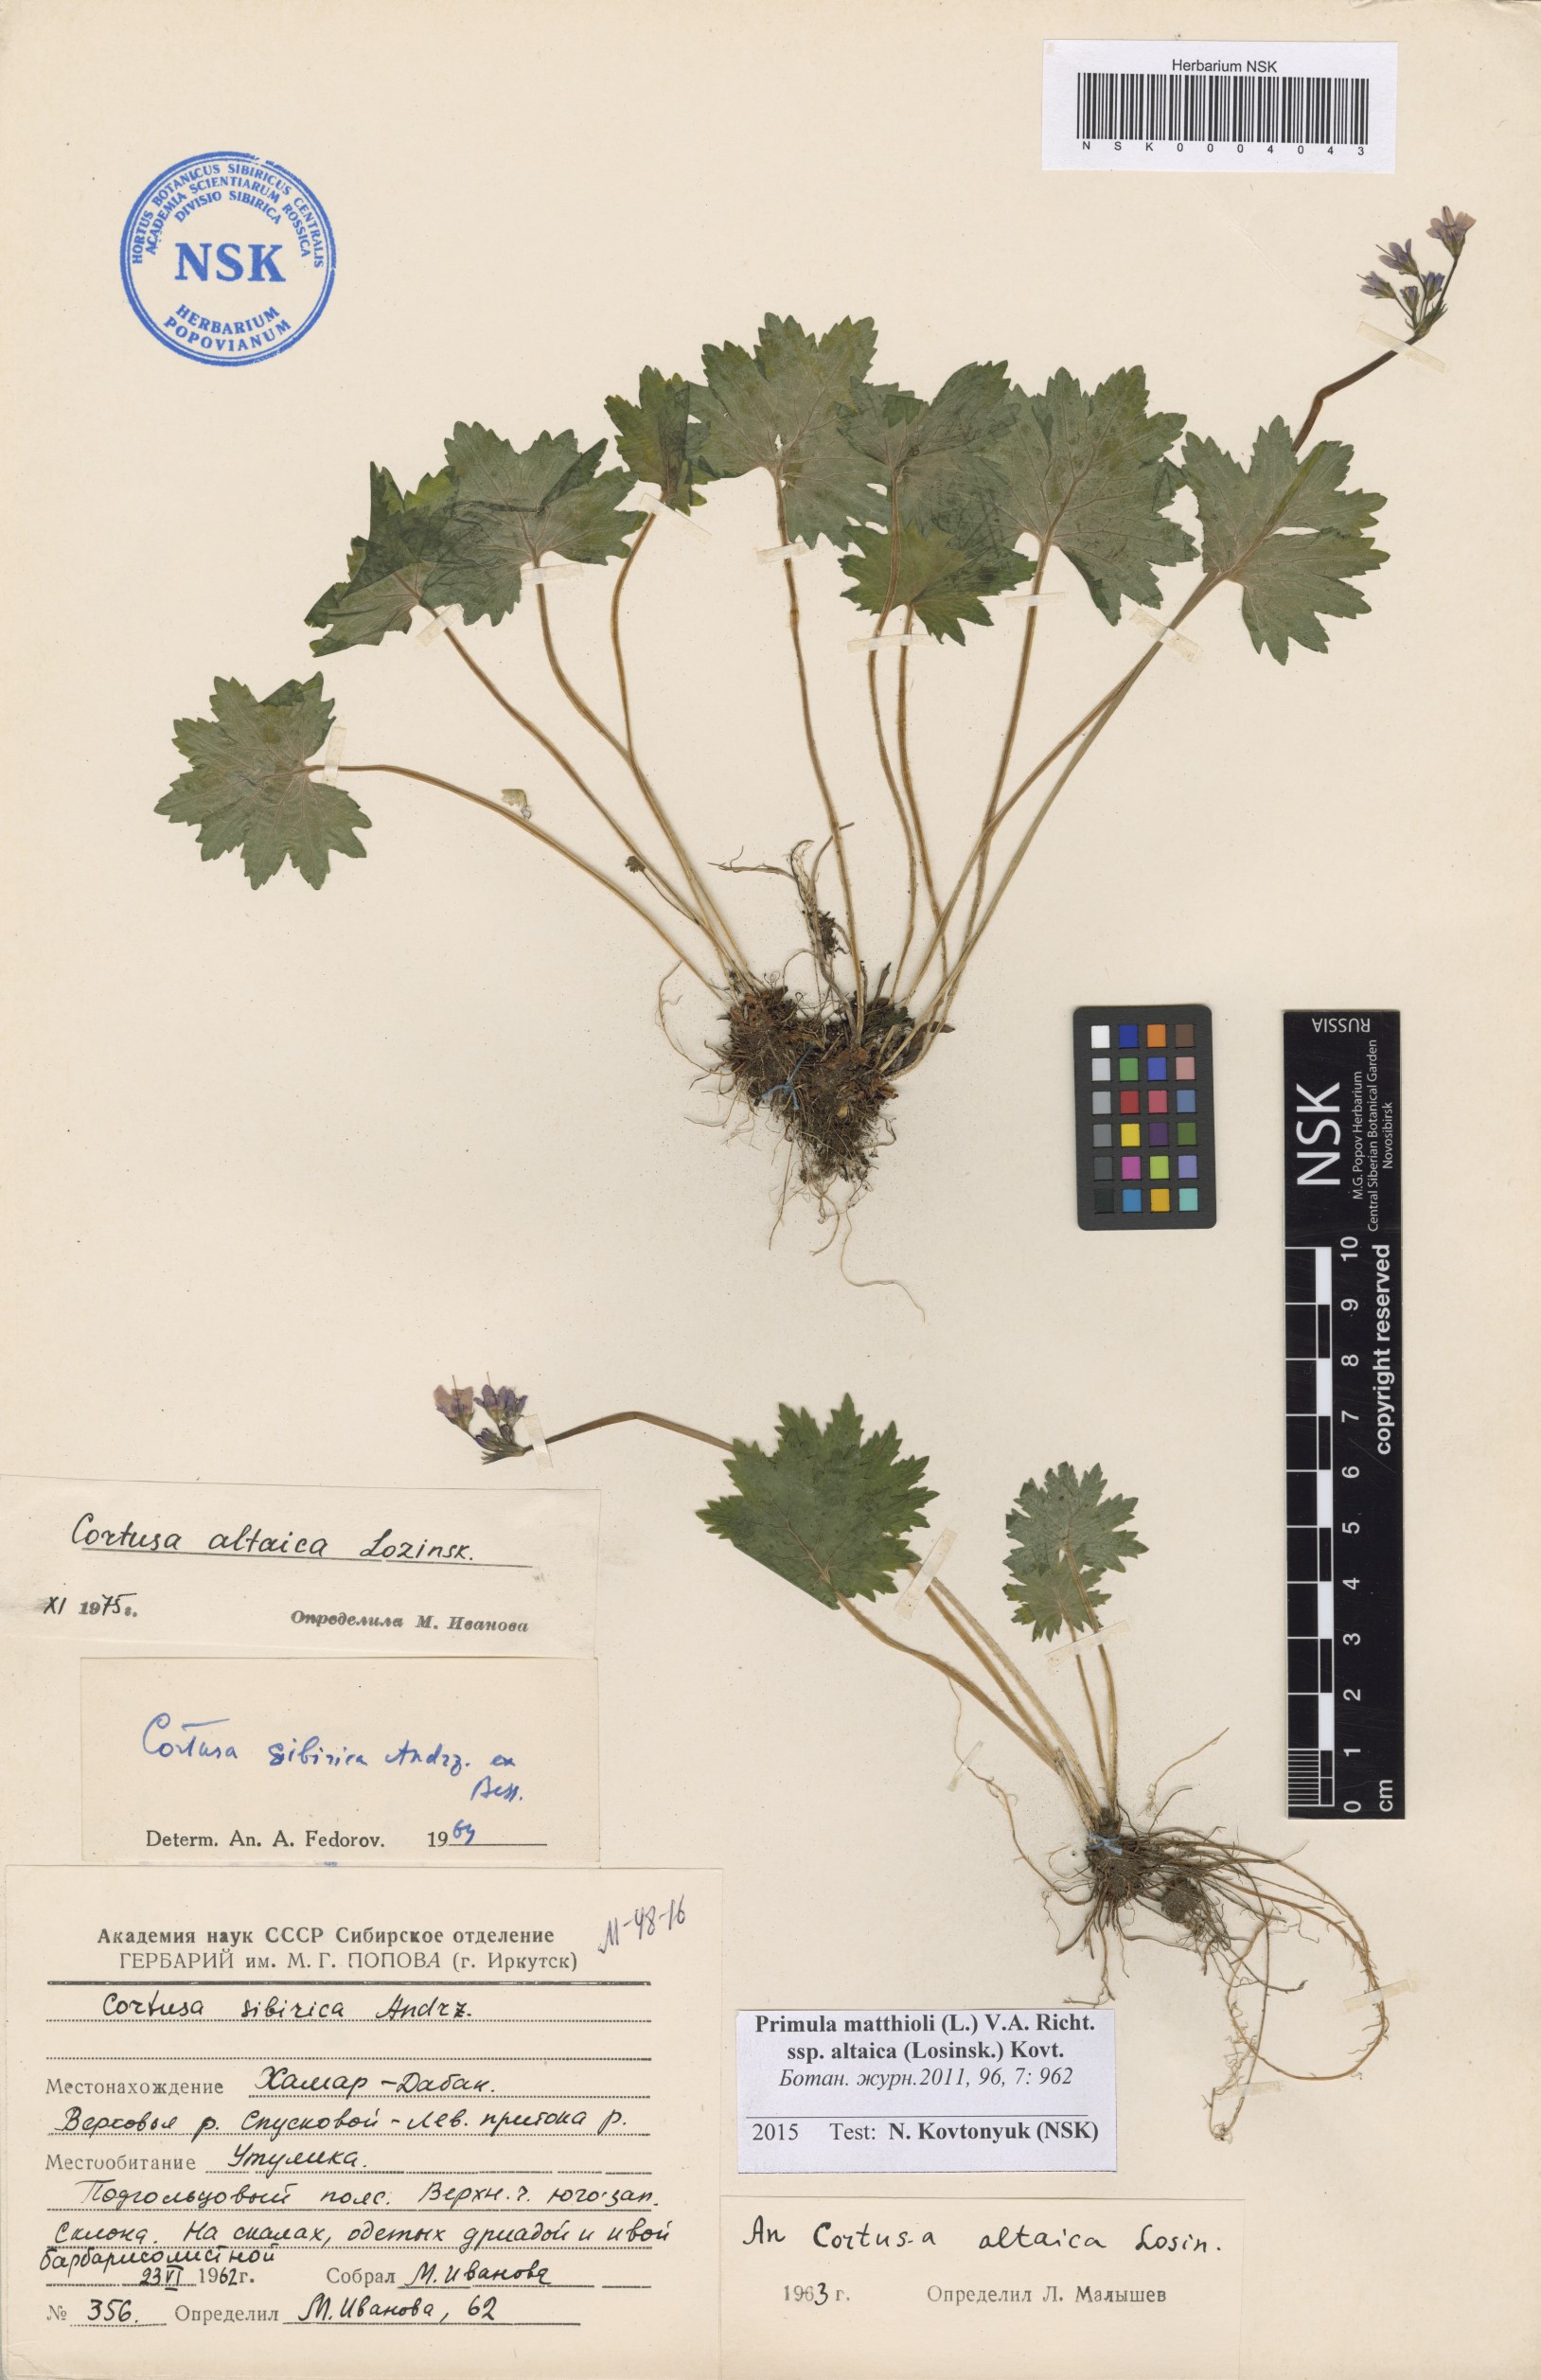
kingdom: Plantae
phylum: Tracheophyta
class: Magnoliopsida
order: Ericales
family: Primulaceae
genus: Primula
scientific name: Primula matthioli
